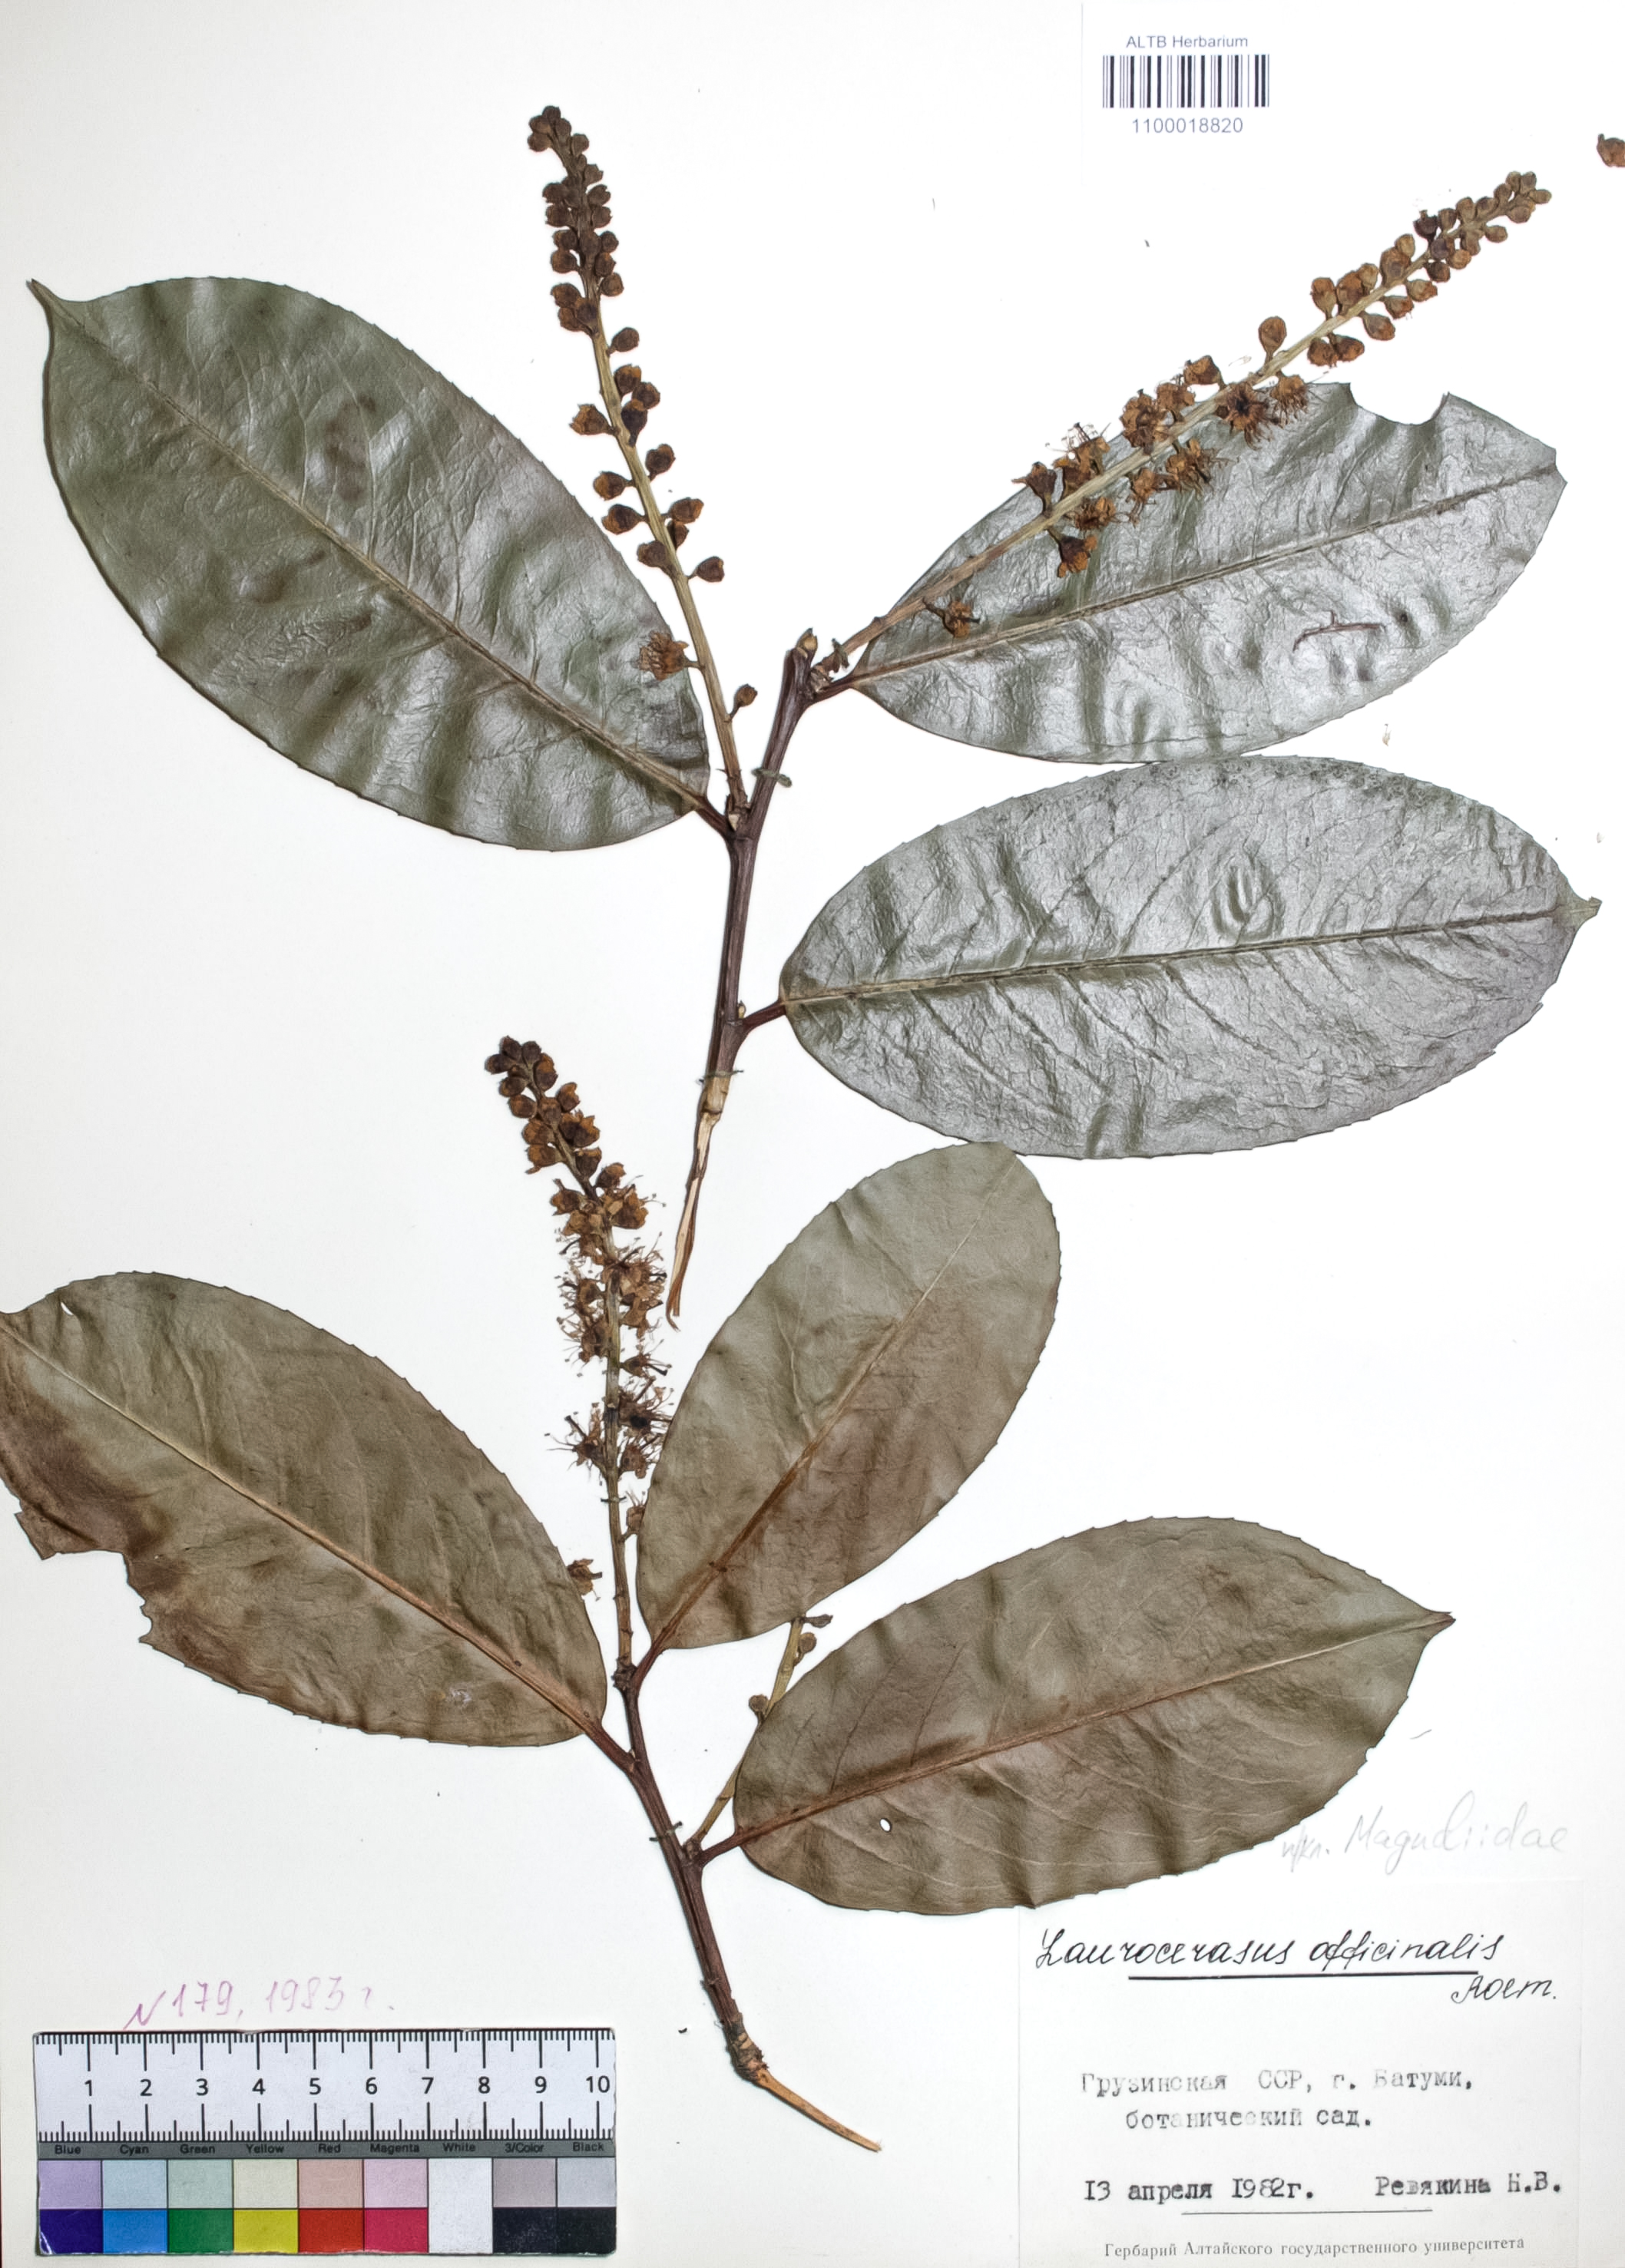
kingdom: Plantae
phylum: Tracheophyta
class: Magnoliopsida
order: Rosales
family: Rosaceae
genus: Prunus
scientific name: Prunus laurocerasus
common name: Cherry laurel
